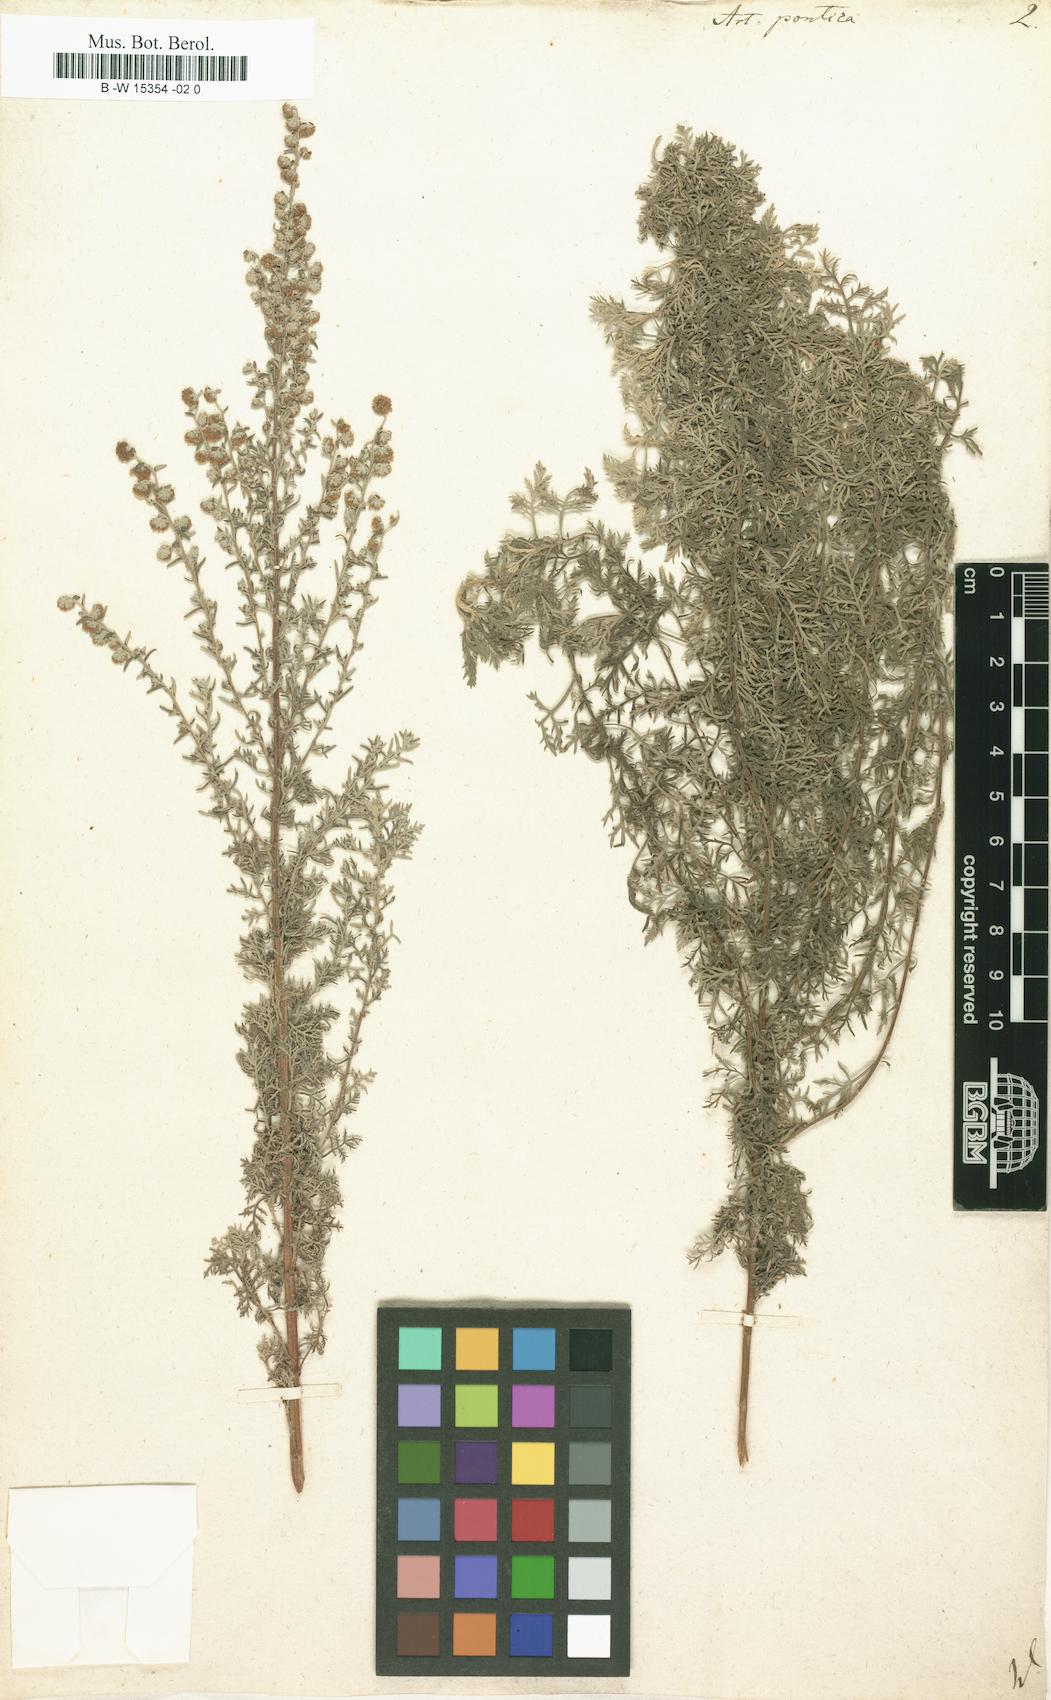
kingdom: Plantae
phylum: Tracheophyta
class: Magnoliopsida
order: Asterales
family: Asteraceae
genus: Artemisia
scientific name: Artemisia pontica
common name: Roman wormwood
